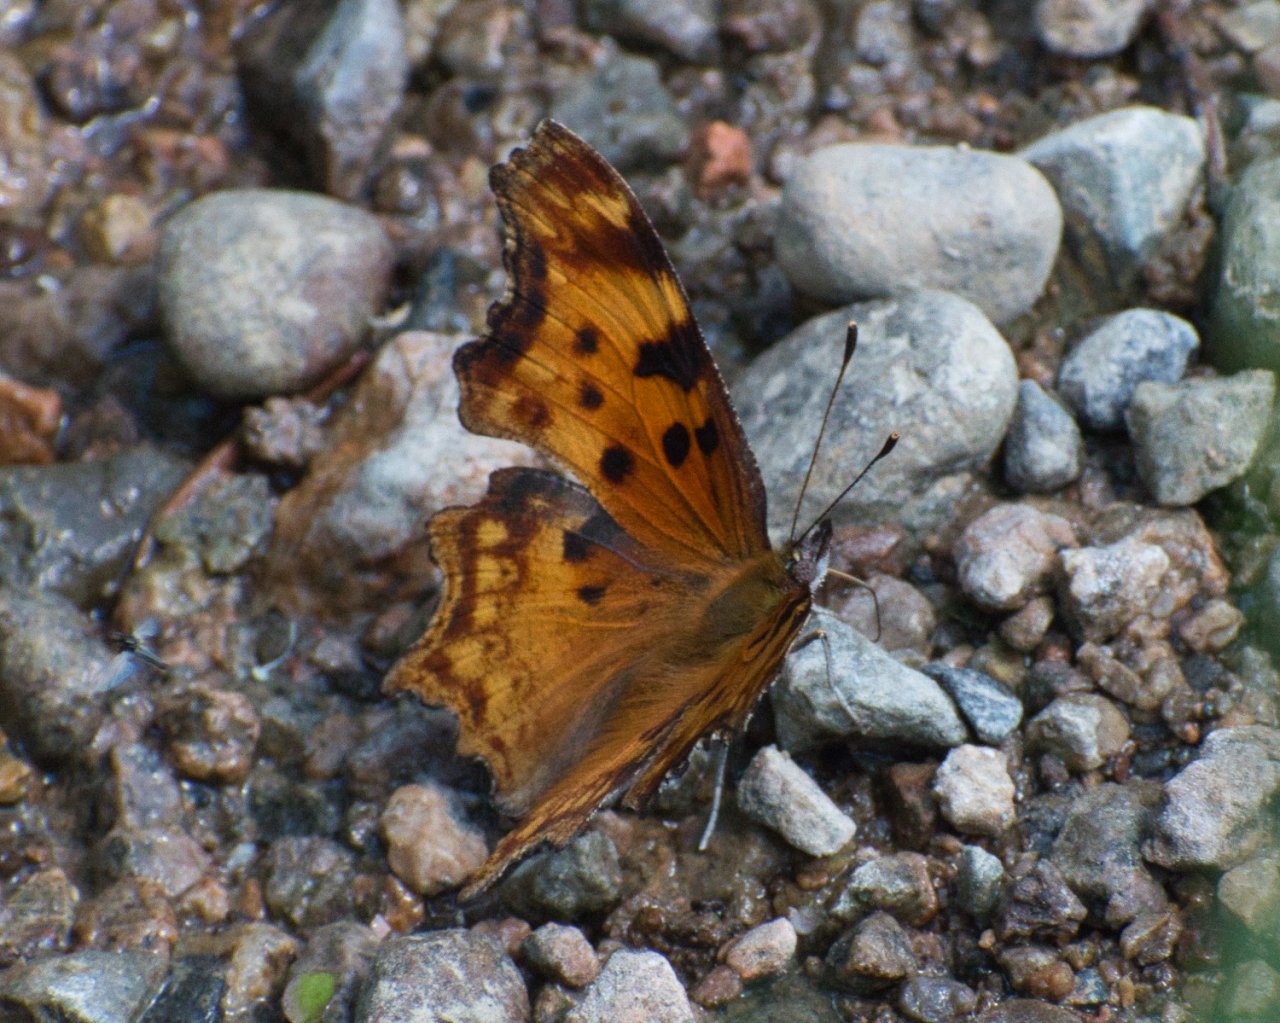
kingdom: Animalia
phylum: Arthropoda
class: Insecta
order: Lepidoptera
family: Nymphalidae
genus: Polygonia
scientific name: Polygonia gracilis
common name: Hoary Comma
